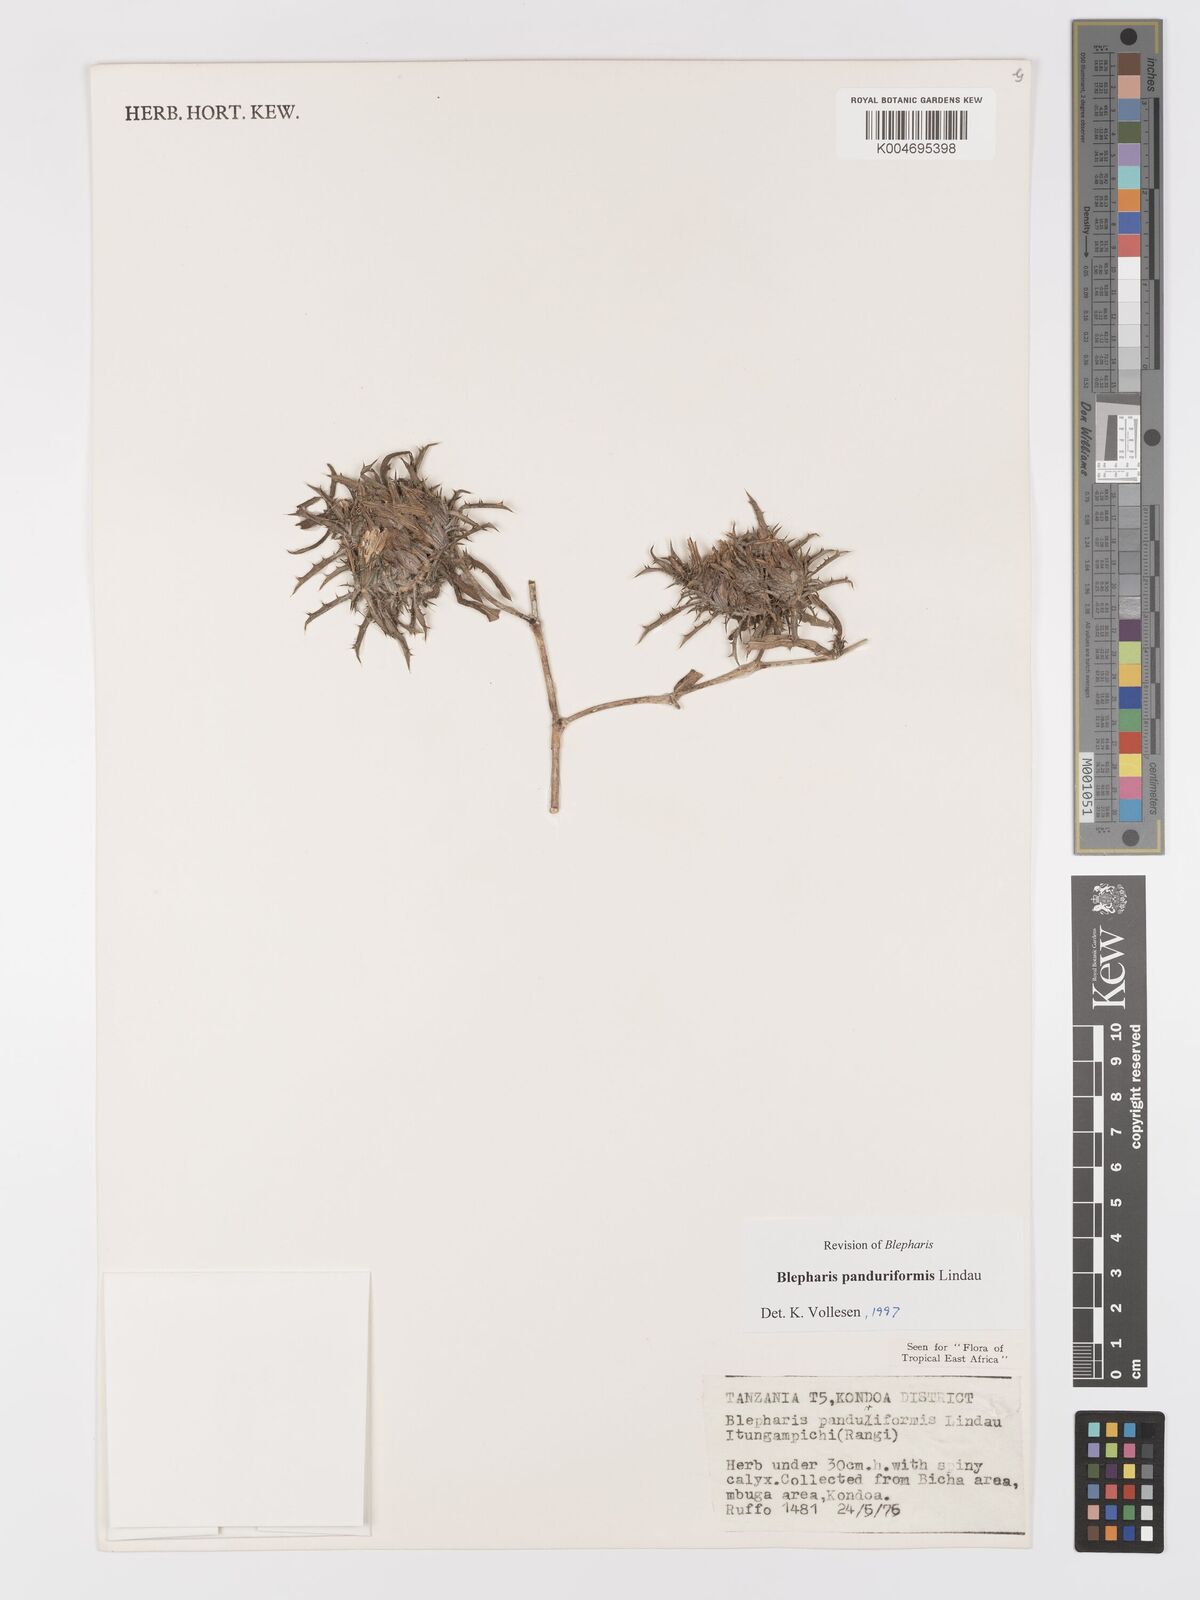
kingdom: Plantae
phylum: Tracheophyta
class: Magnoliopsida
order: Lamiales
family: Acanthaceae
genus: Blepharis
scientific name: Blepharis panduriformis
